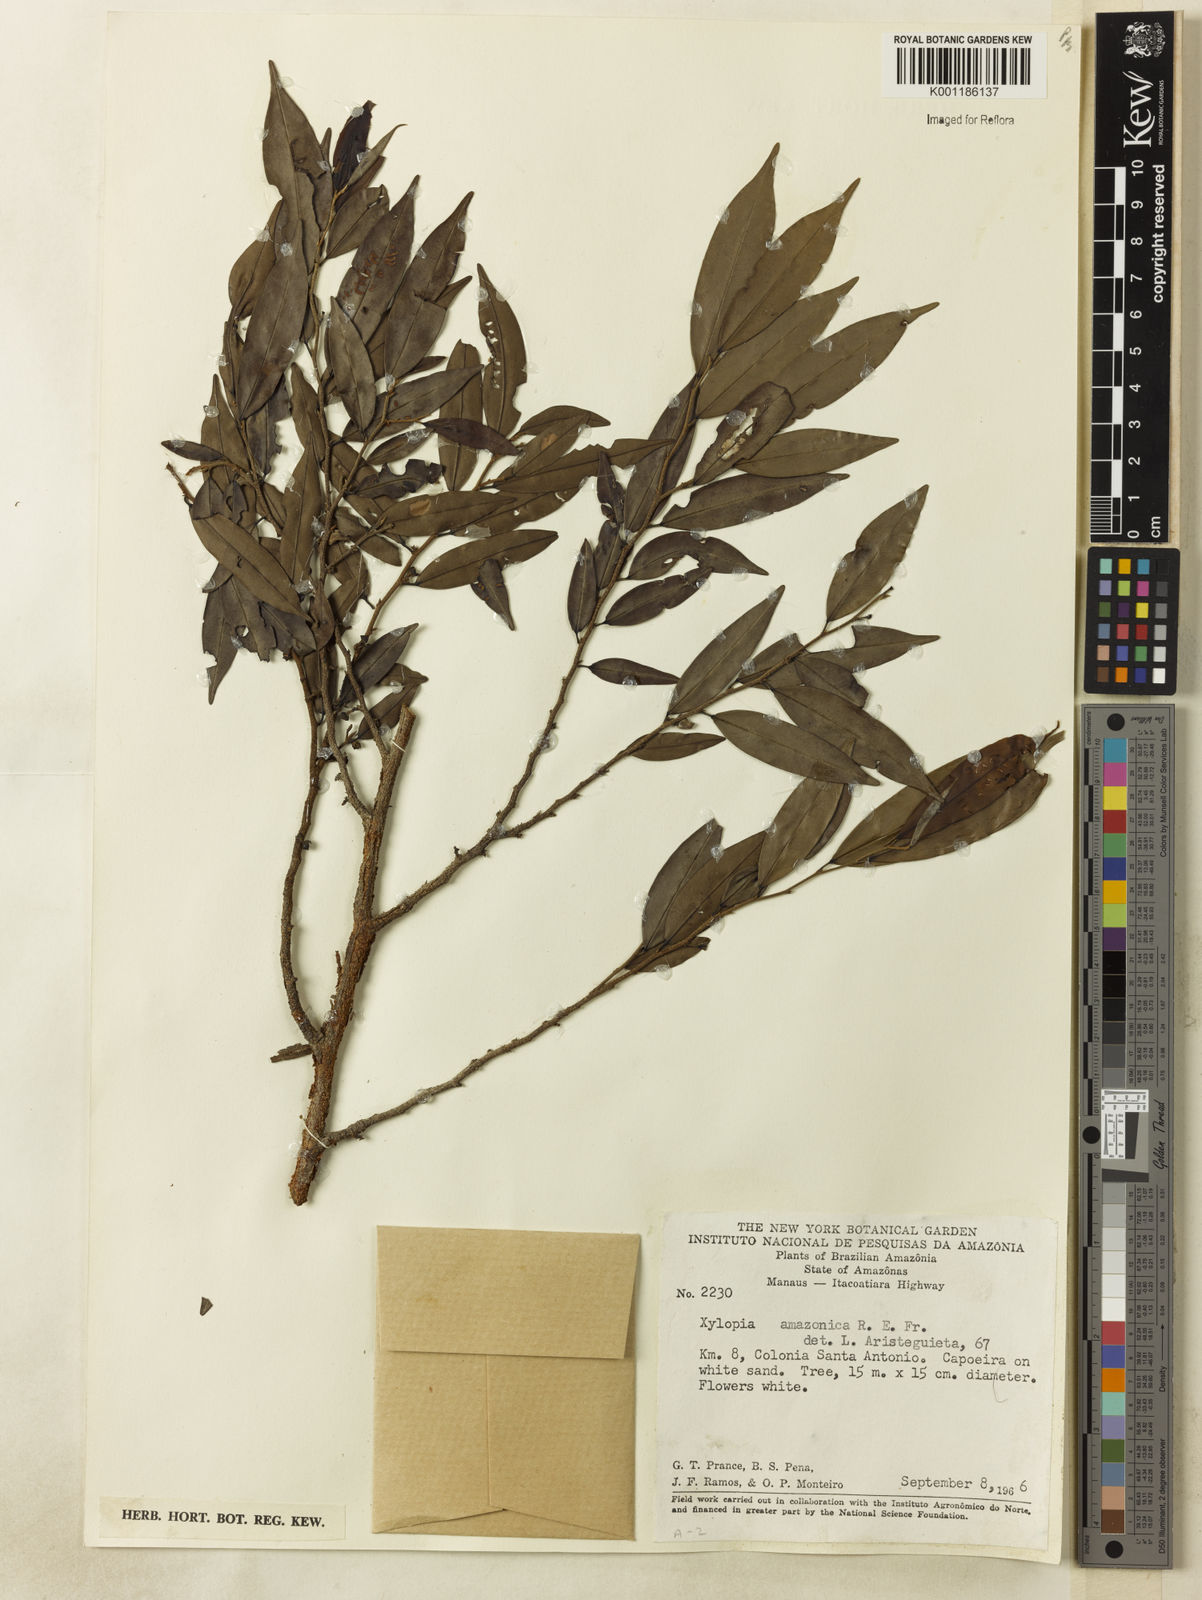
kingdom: Plantae
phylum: Tracheophyta
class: Magnoliopsida
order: Magnoliales
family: Annonaceae
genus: Xylopia
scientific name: Xylopia amazonica
